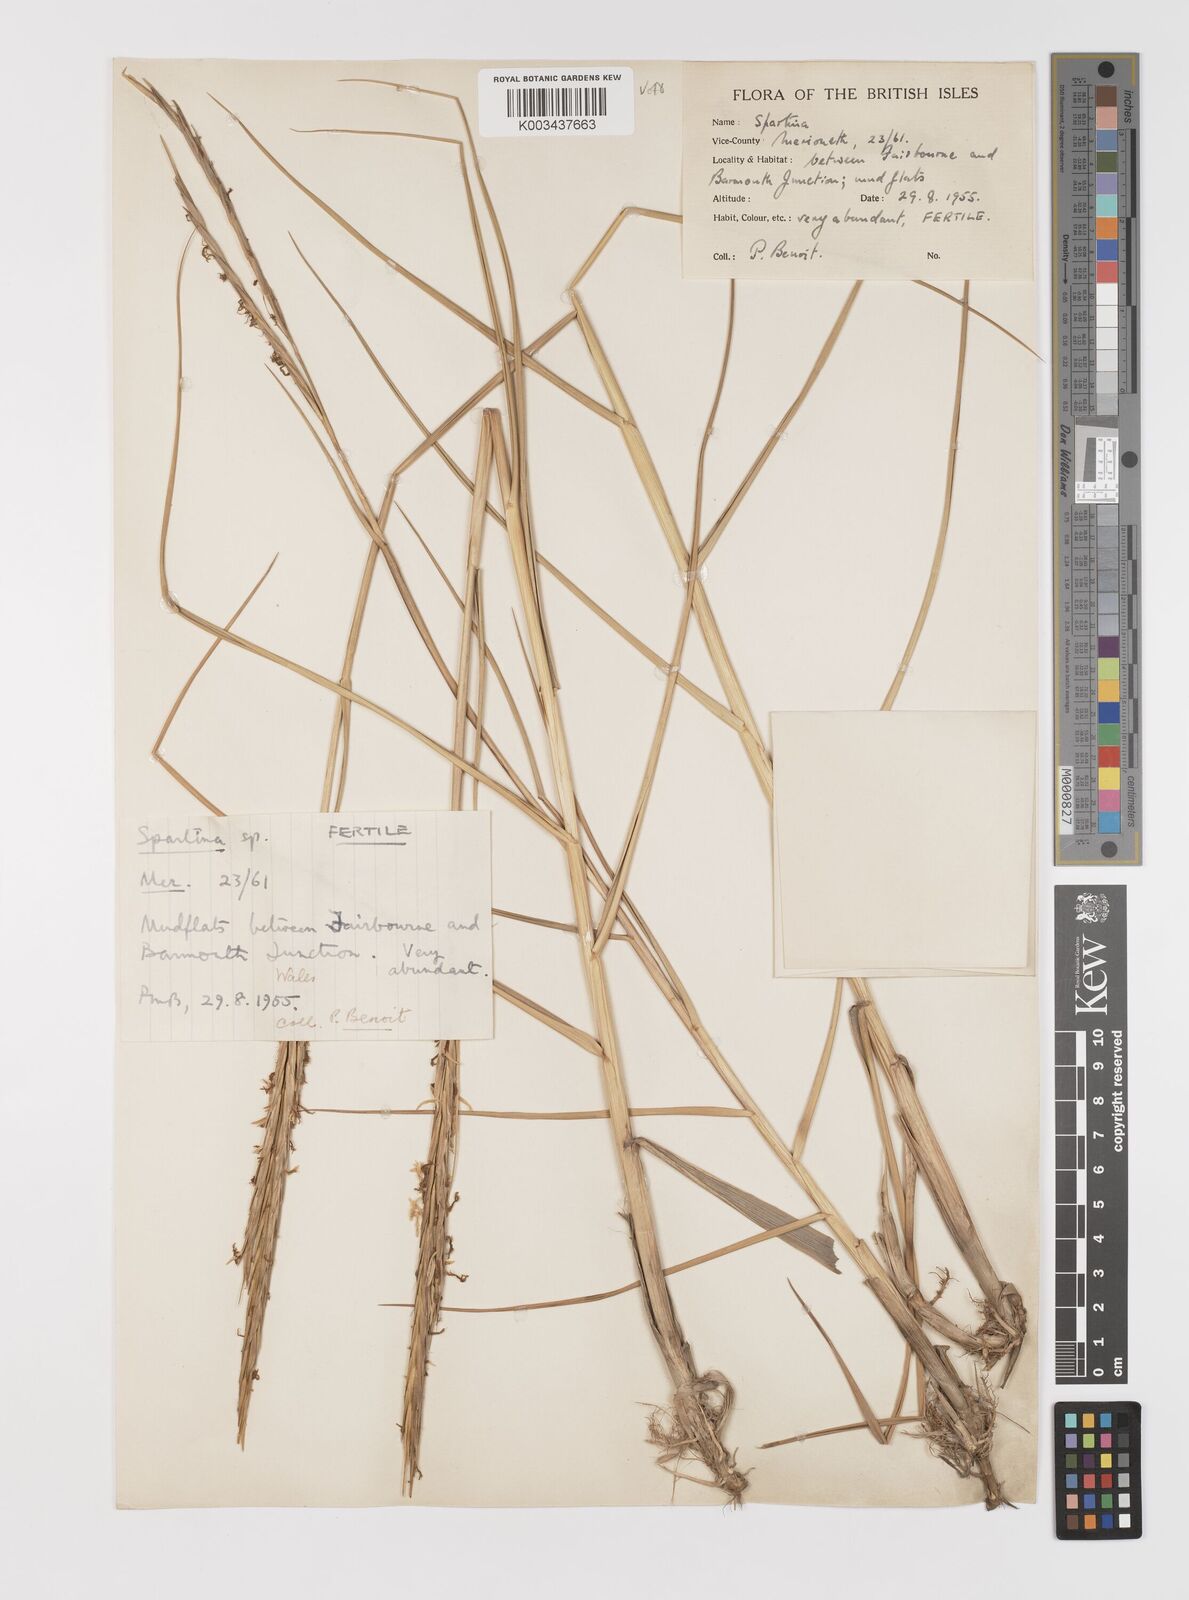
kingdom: Plantae
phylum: Tracheophyta
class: Liliopsida
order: Poales
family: Poaceae
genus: Sporobolus
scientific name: Sporobolus anglicus
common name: English cordgrass
